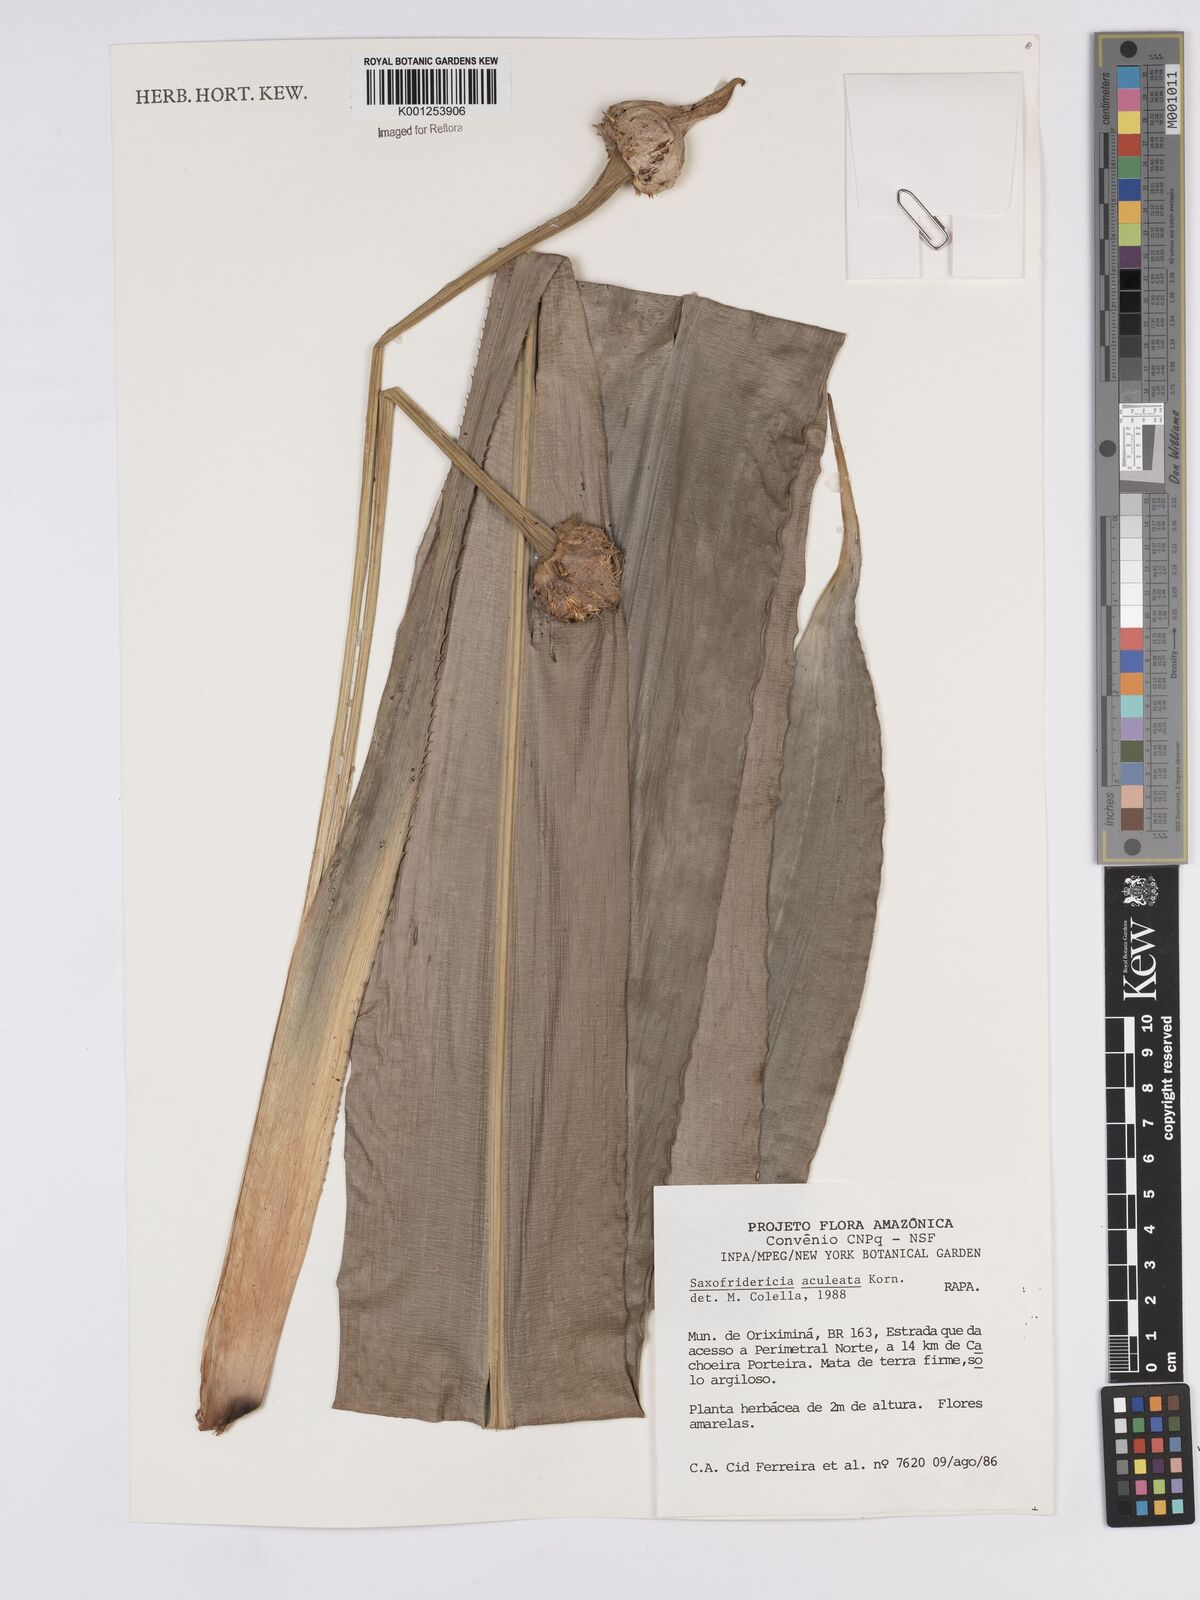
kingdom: Plantae
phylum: Tracheophyta
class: Liliopsida
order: Poales
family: Rapateaceae
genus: Saxofridericia
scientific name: Saxofridericia aculeata
